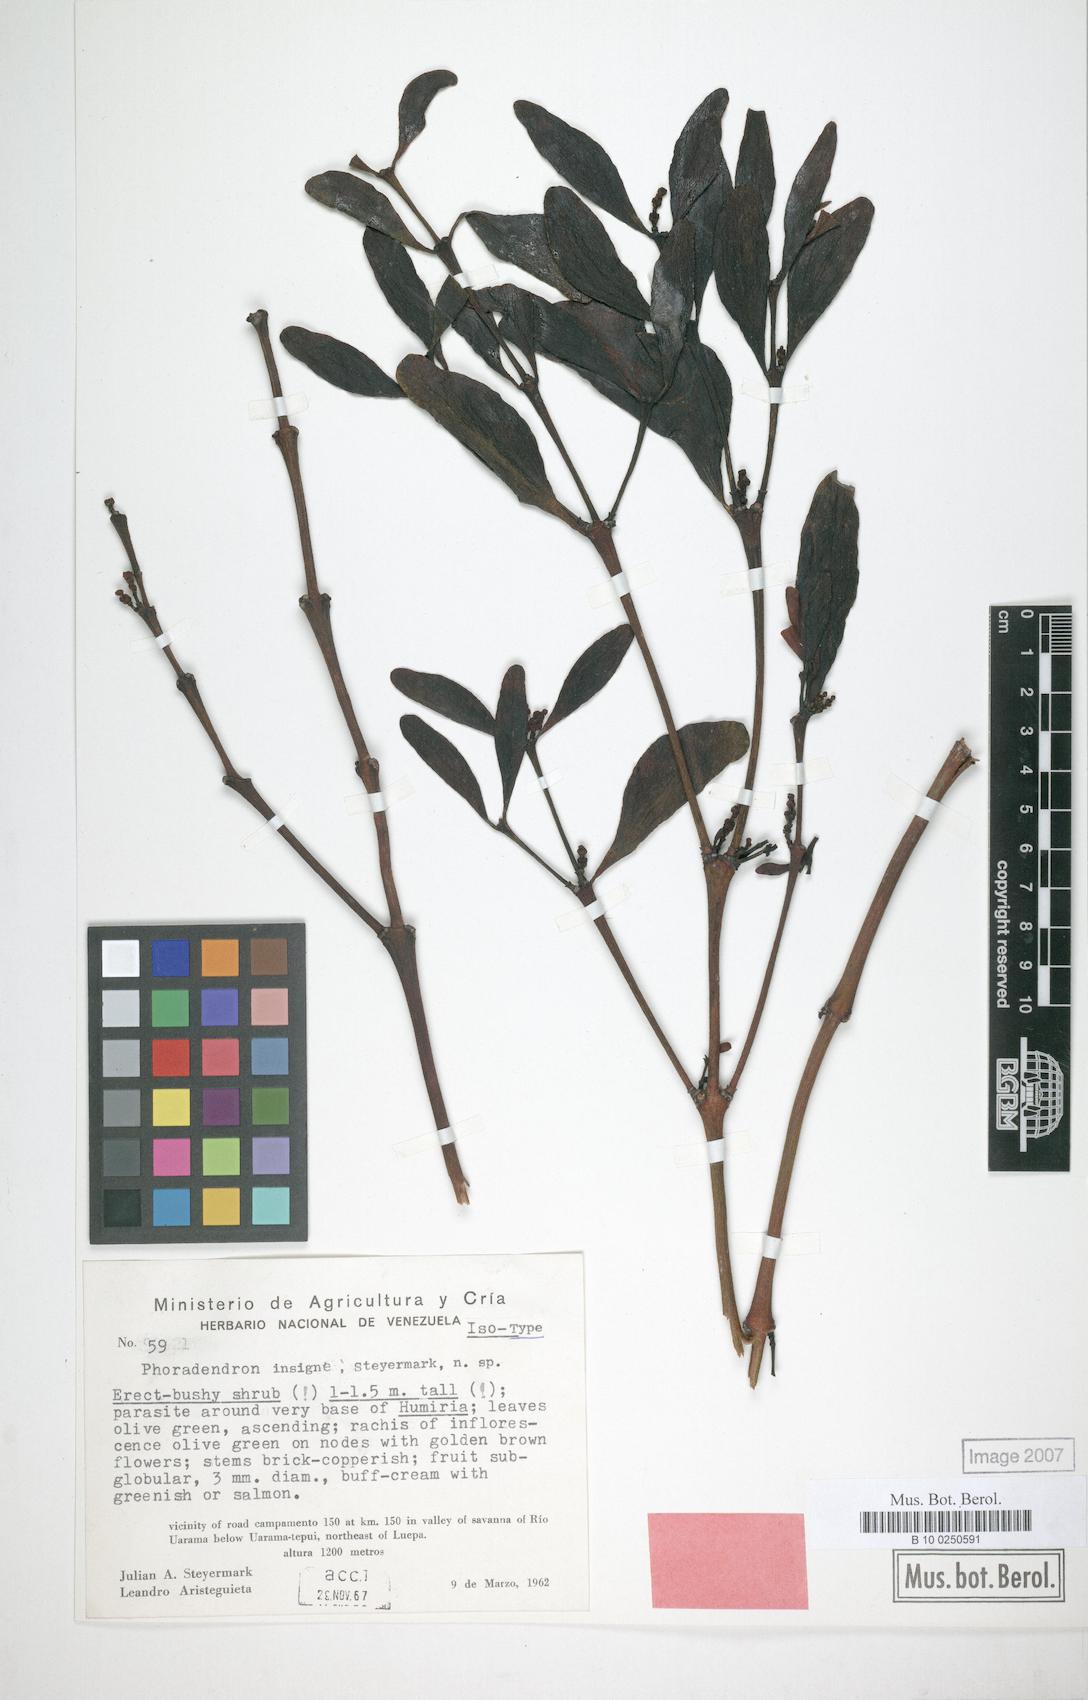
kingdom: Plantae
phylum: Tracheophyta
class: Magnoliopsida
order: Santalales
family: Viscaceae
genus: Phoradendron
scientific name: Phoradendron pellucidulum
